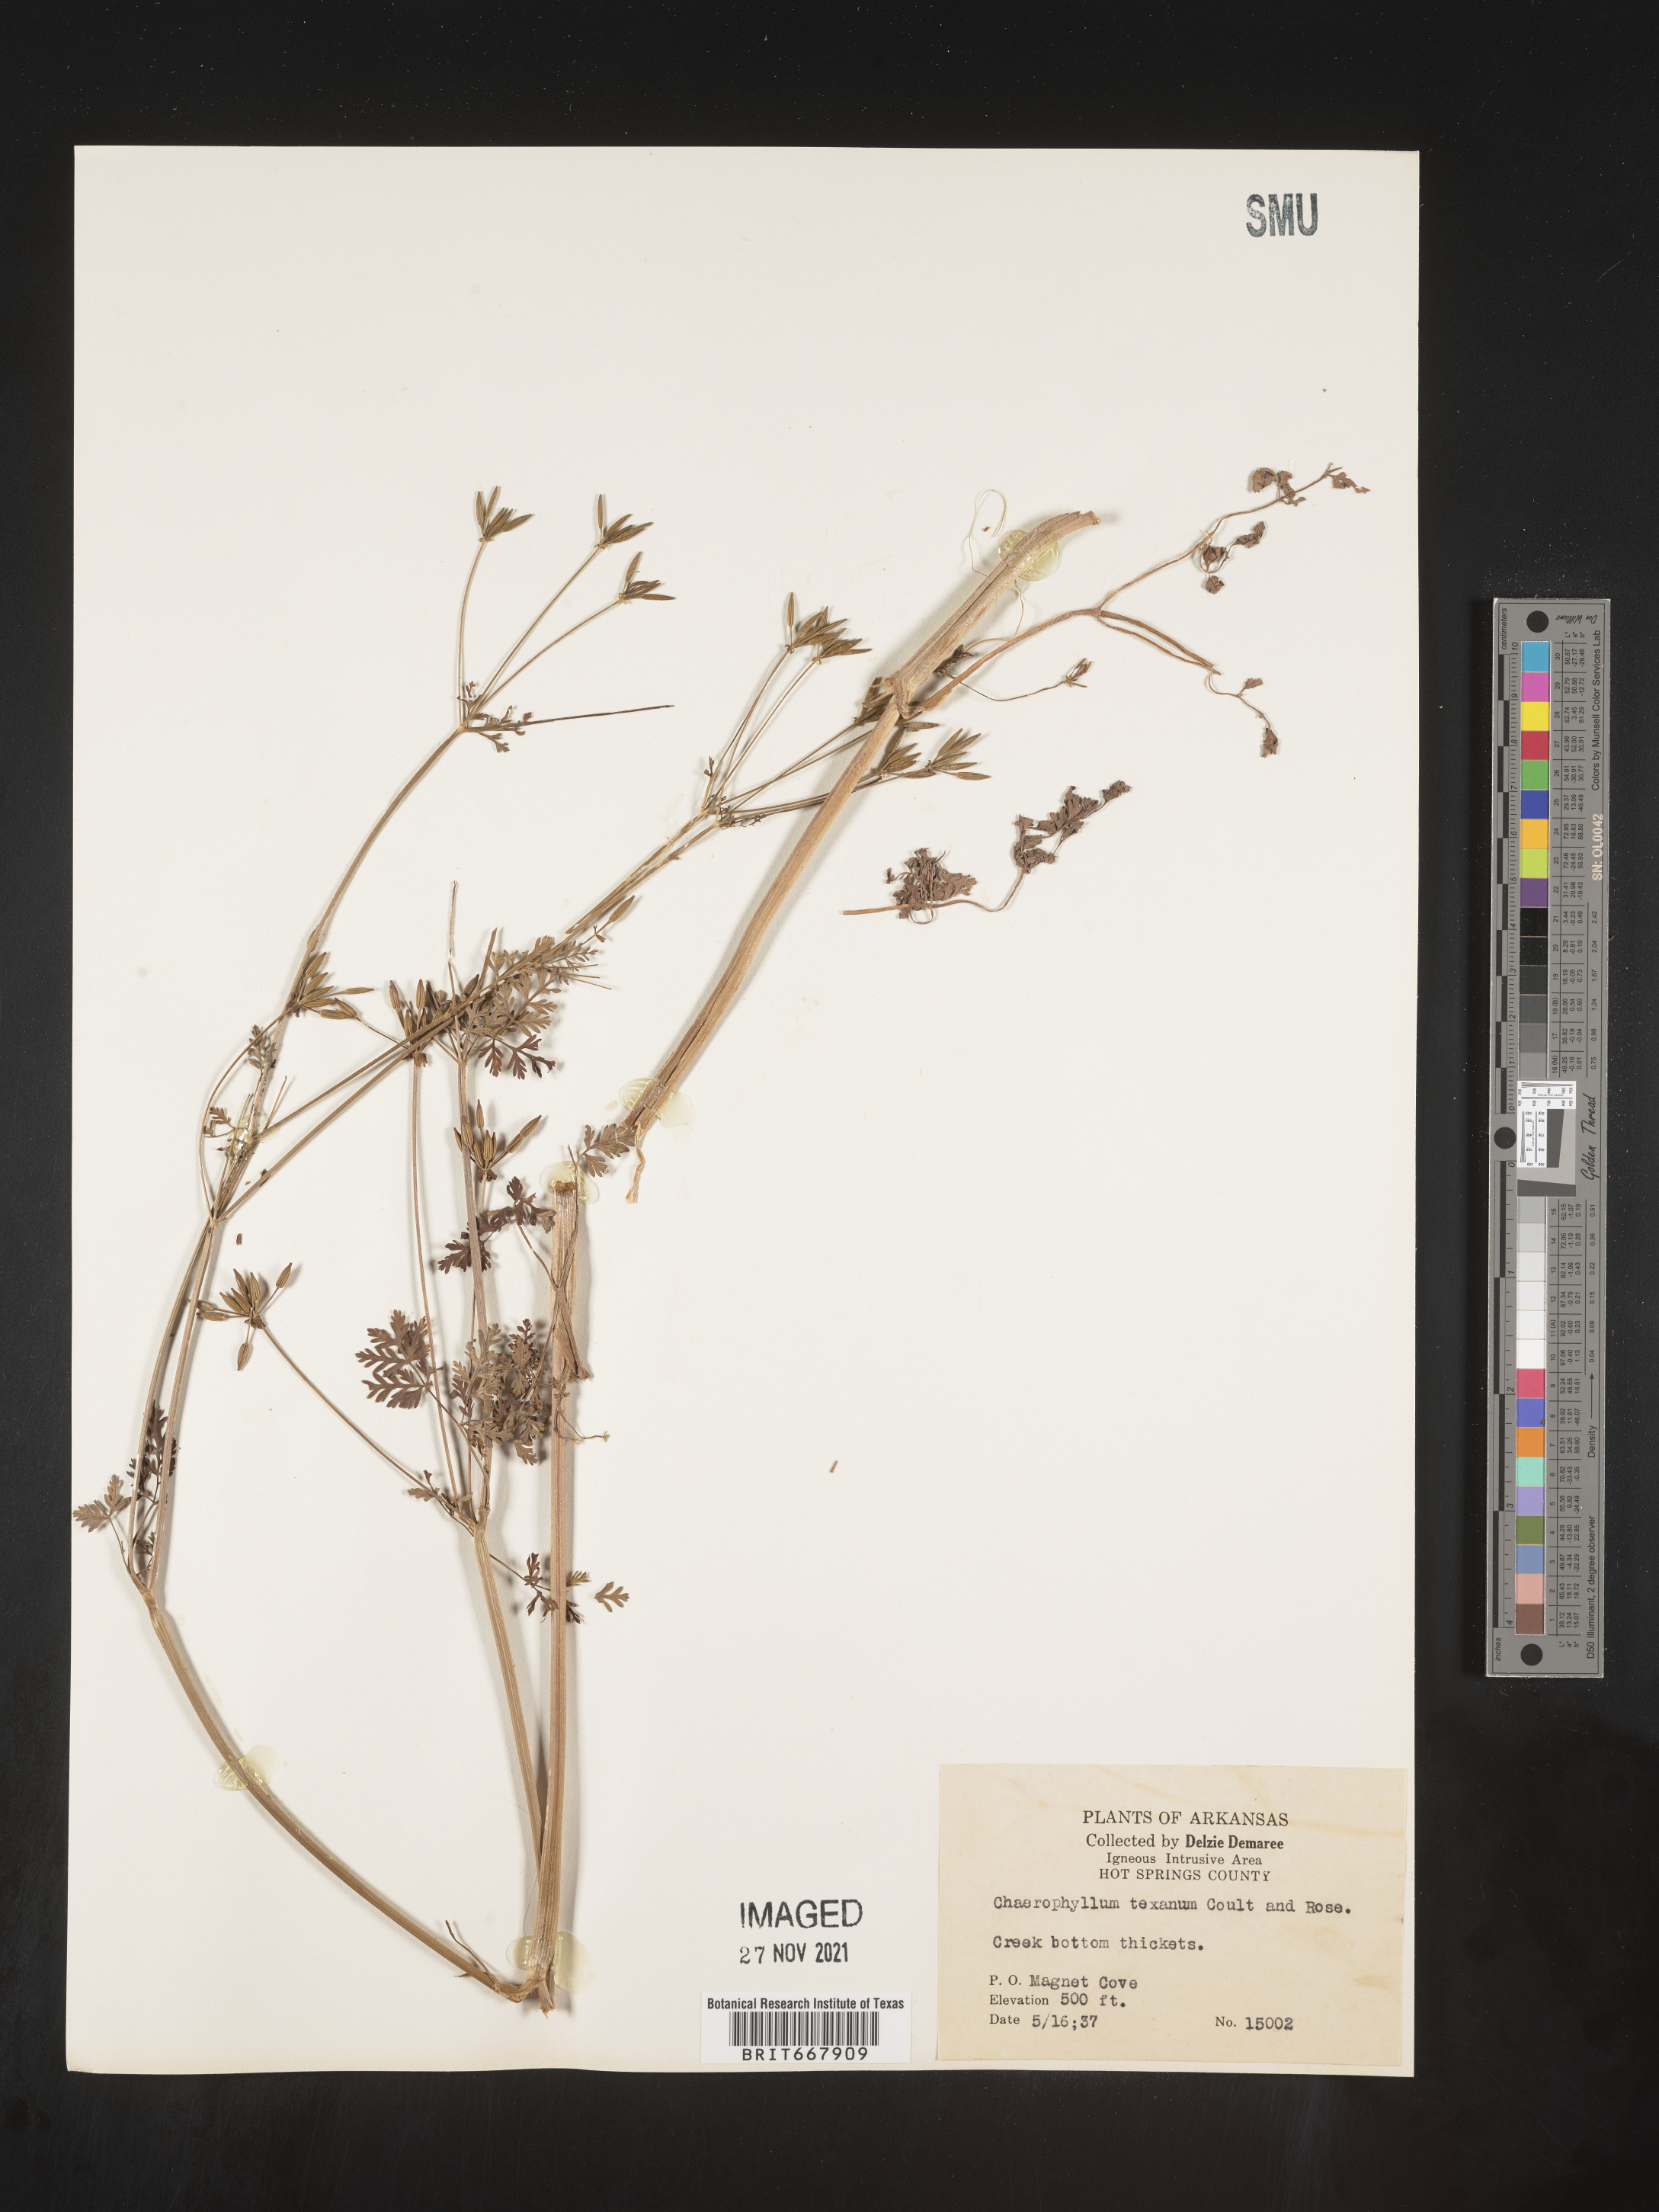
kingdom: Plantae
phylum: Tracheophyta
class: Magnoliopsida
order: Apiales
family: Apiaceae
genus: Chaerophyllum
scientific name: Chaerophyllum tainturieri
